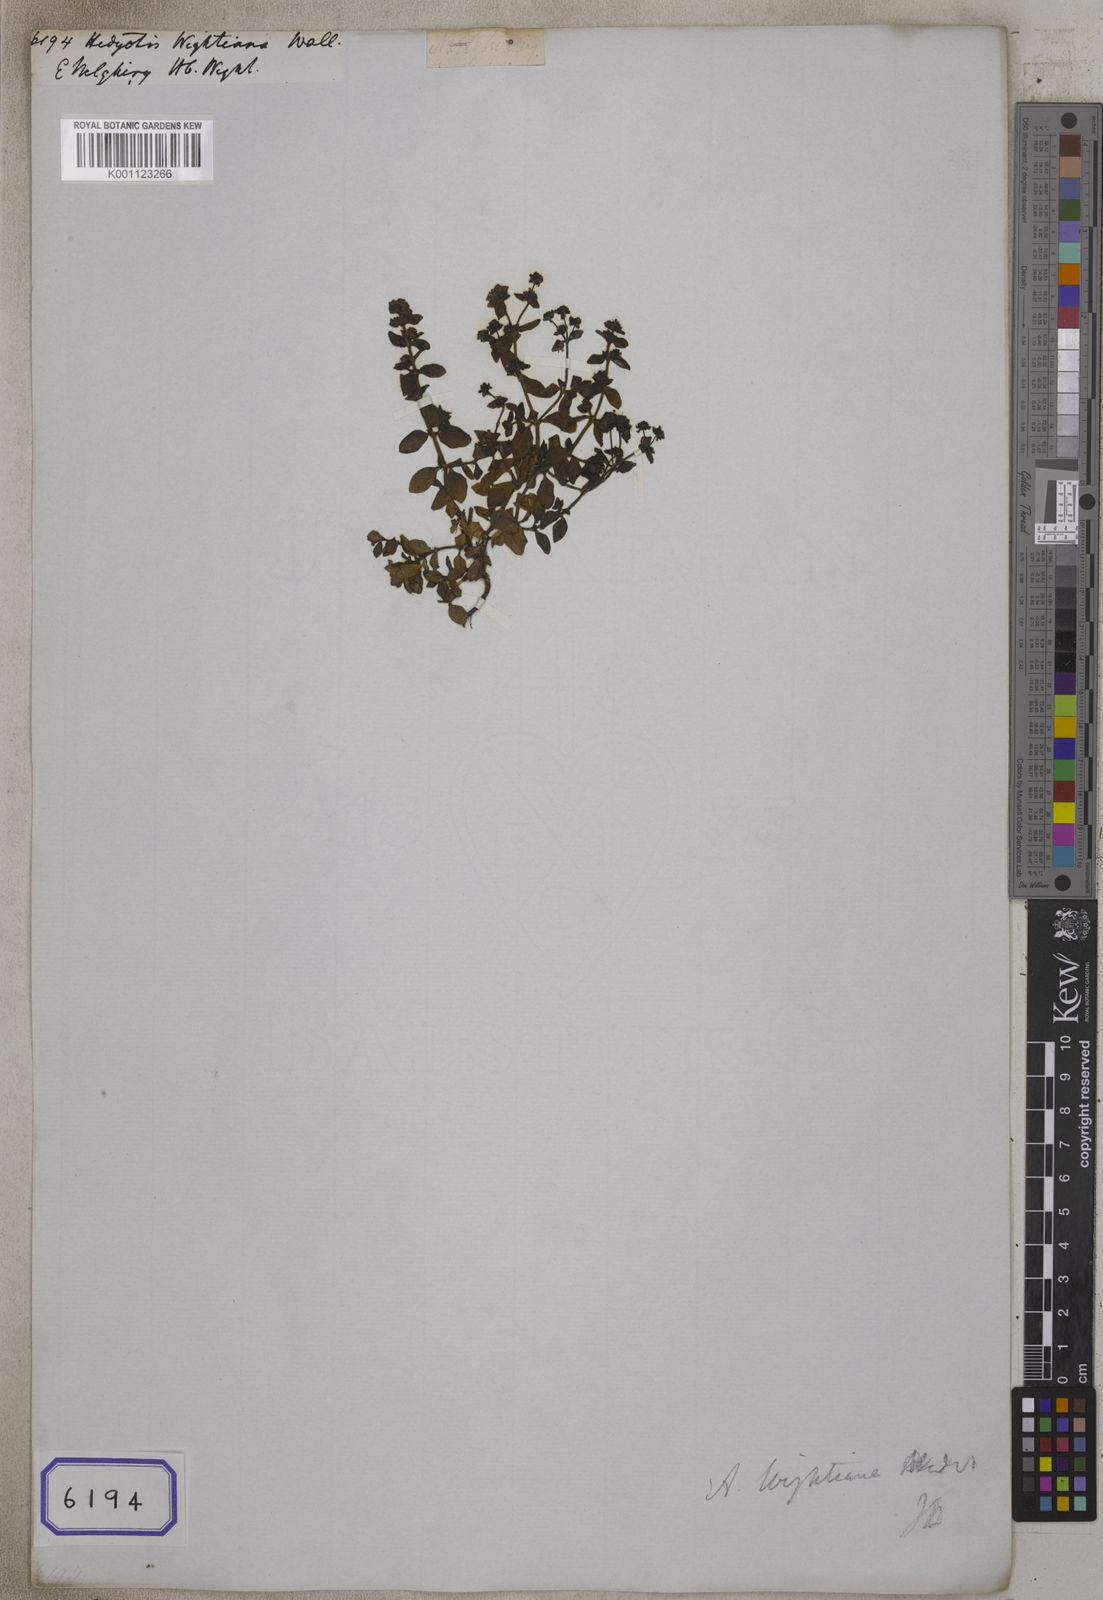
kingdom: Plantae
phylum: Tracheophyta
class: Magnoliopsida
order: Gentianales
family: Rubiaceae
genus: Hedyotis
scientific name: Hedyotis
